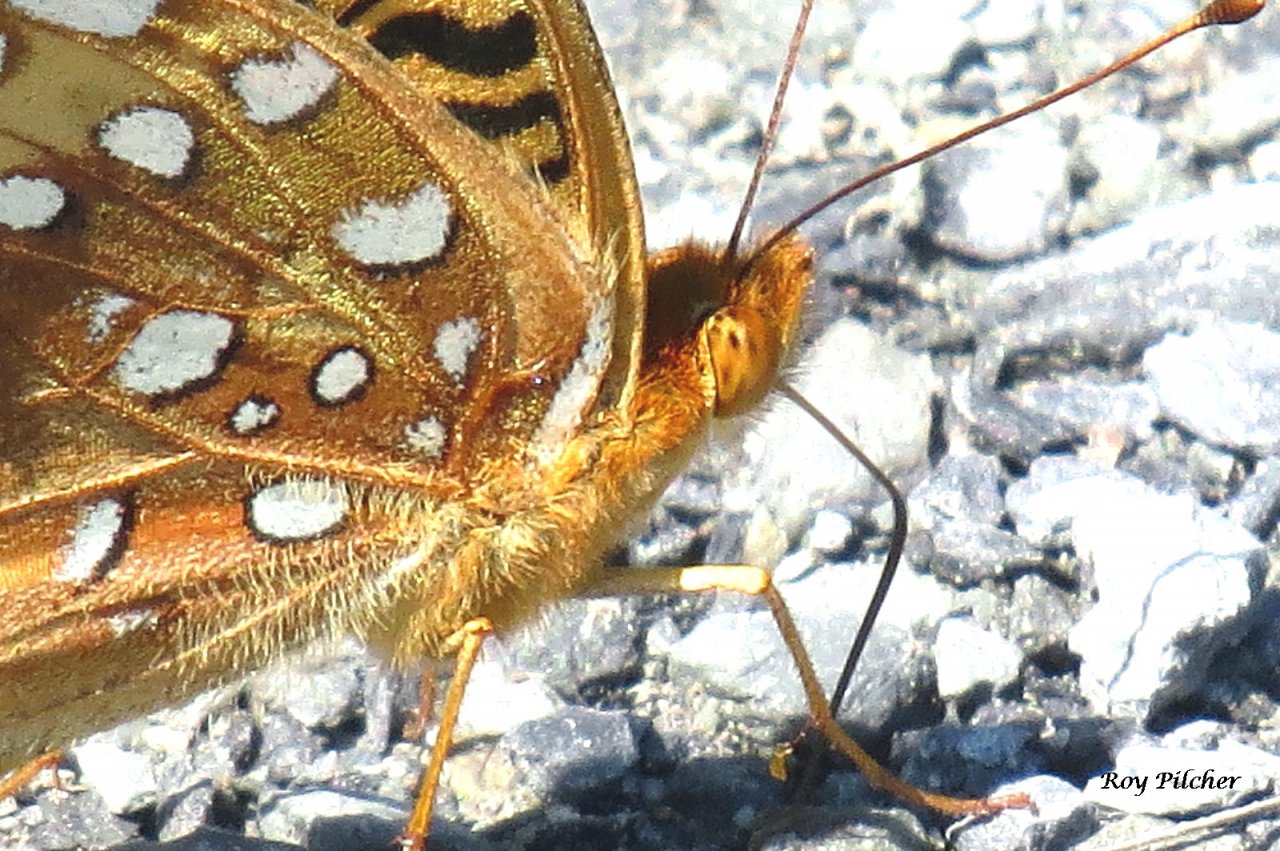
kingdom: Animalia
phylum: Arthropoda
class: Insecta
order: Lepidoptera
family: Nymphalidae
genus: Speyeria
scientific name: Speyeria cybele
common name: Great Spangled Fritillary
